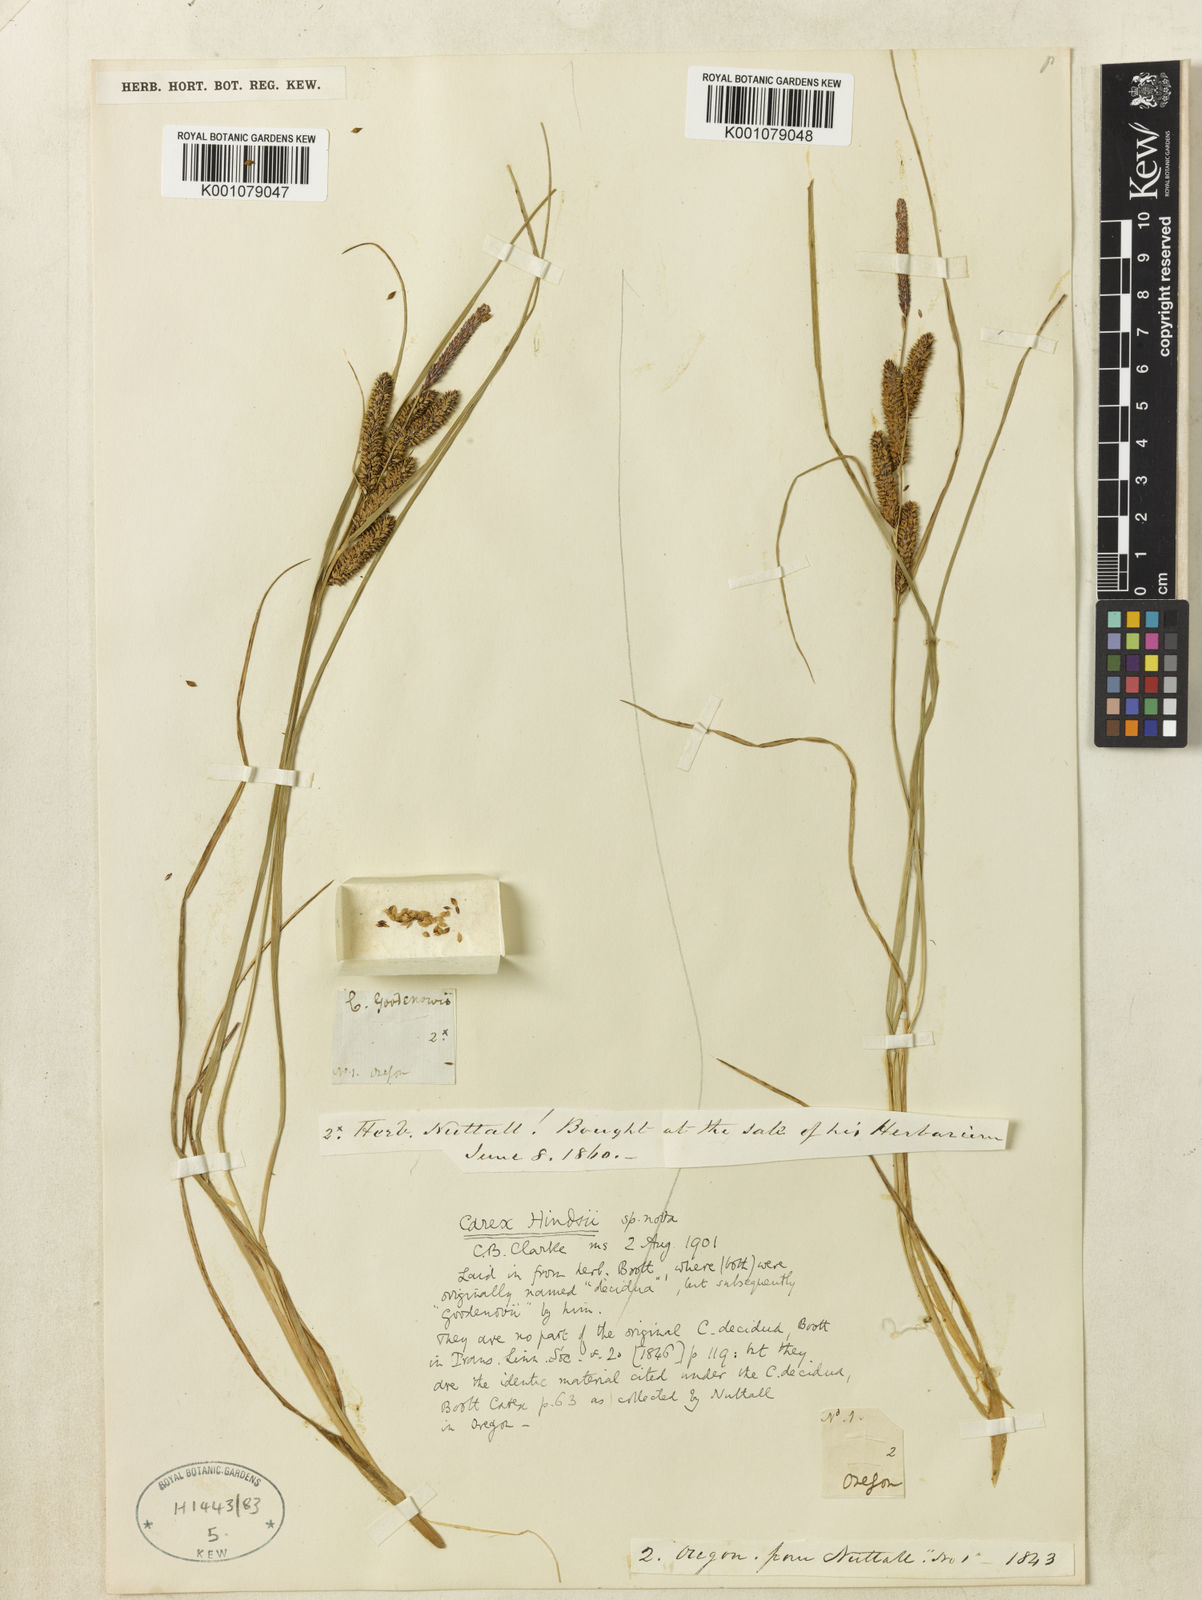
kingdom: Plantae
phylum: Tracheophyta
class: Liliopsida
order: Poales
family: Cyperaceae
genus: Carex
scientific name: Carex kelloggii
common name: Kellogg's sedge
